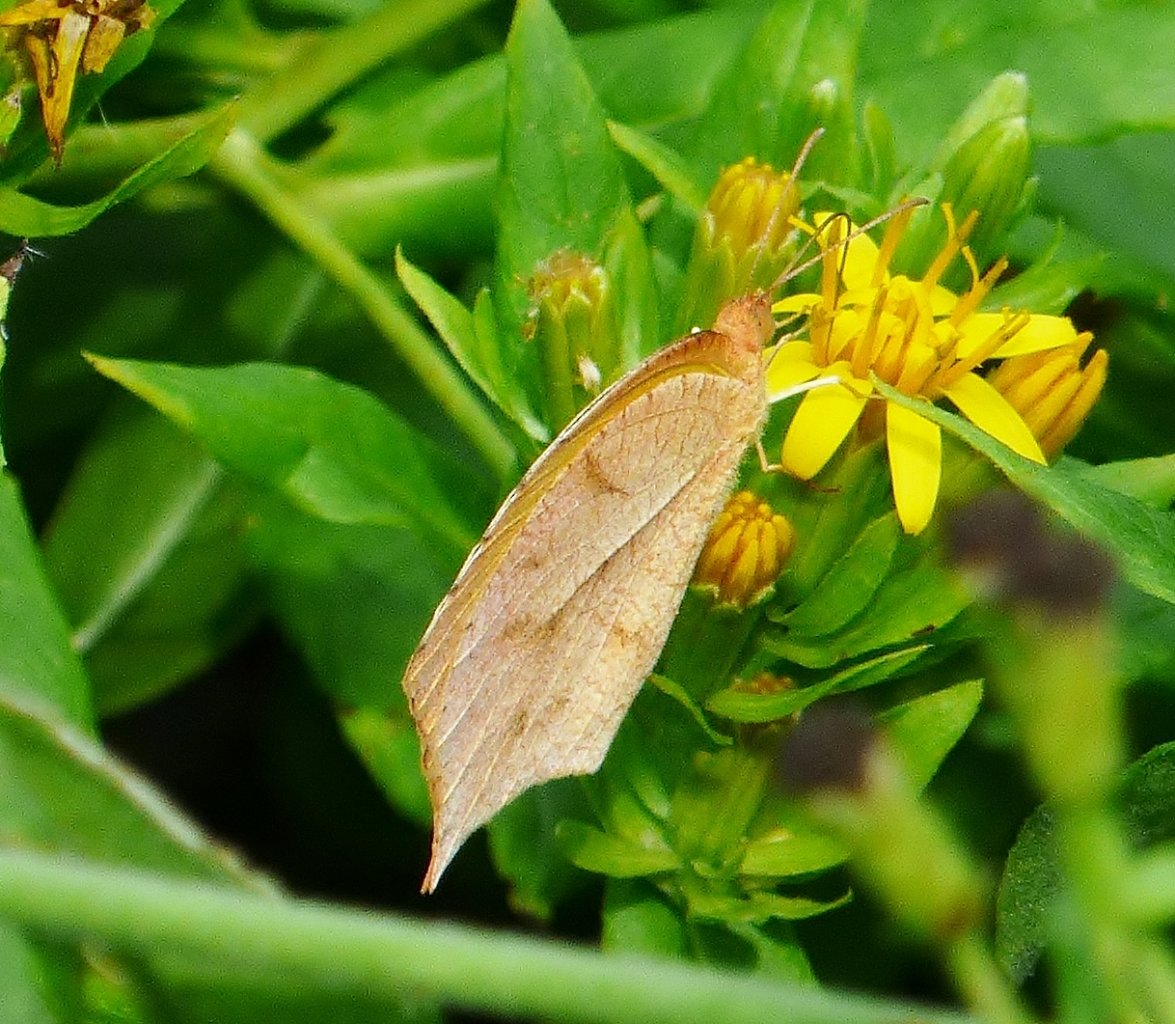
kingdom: Animalia
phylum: Arthropoda
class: Insecta
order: Lepidoptera
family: Pieridae
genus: Pyrisitia
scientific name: Pyrisitia proterpia
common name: Tailed Orange
